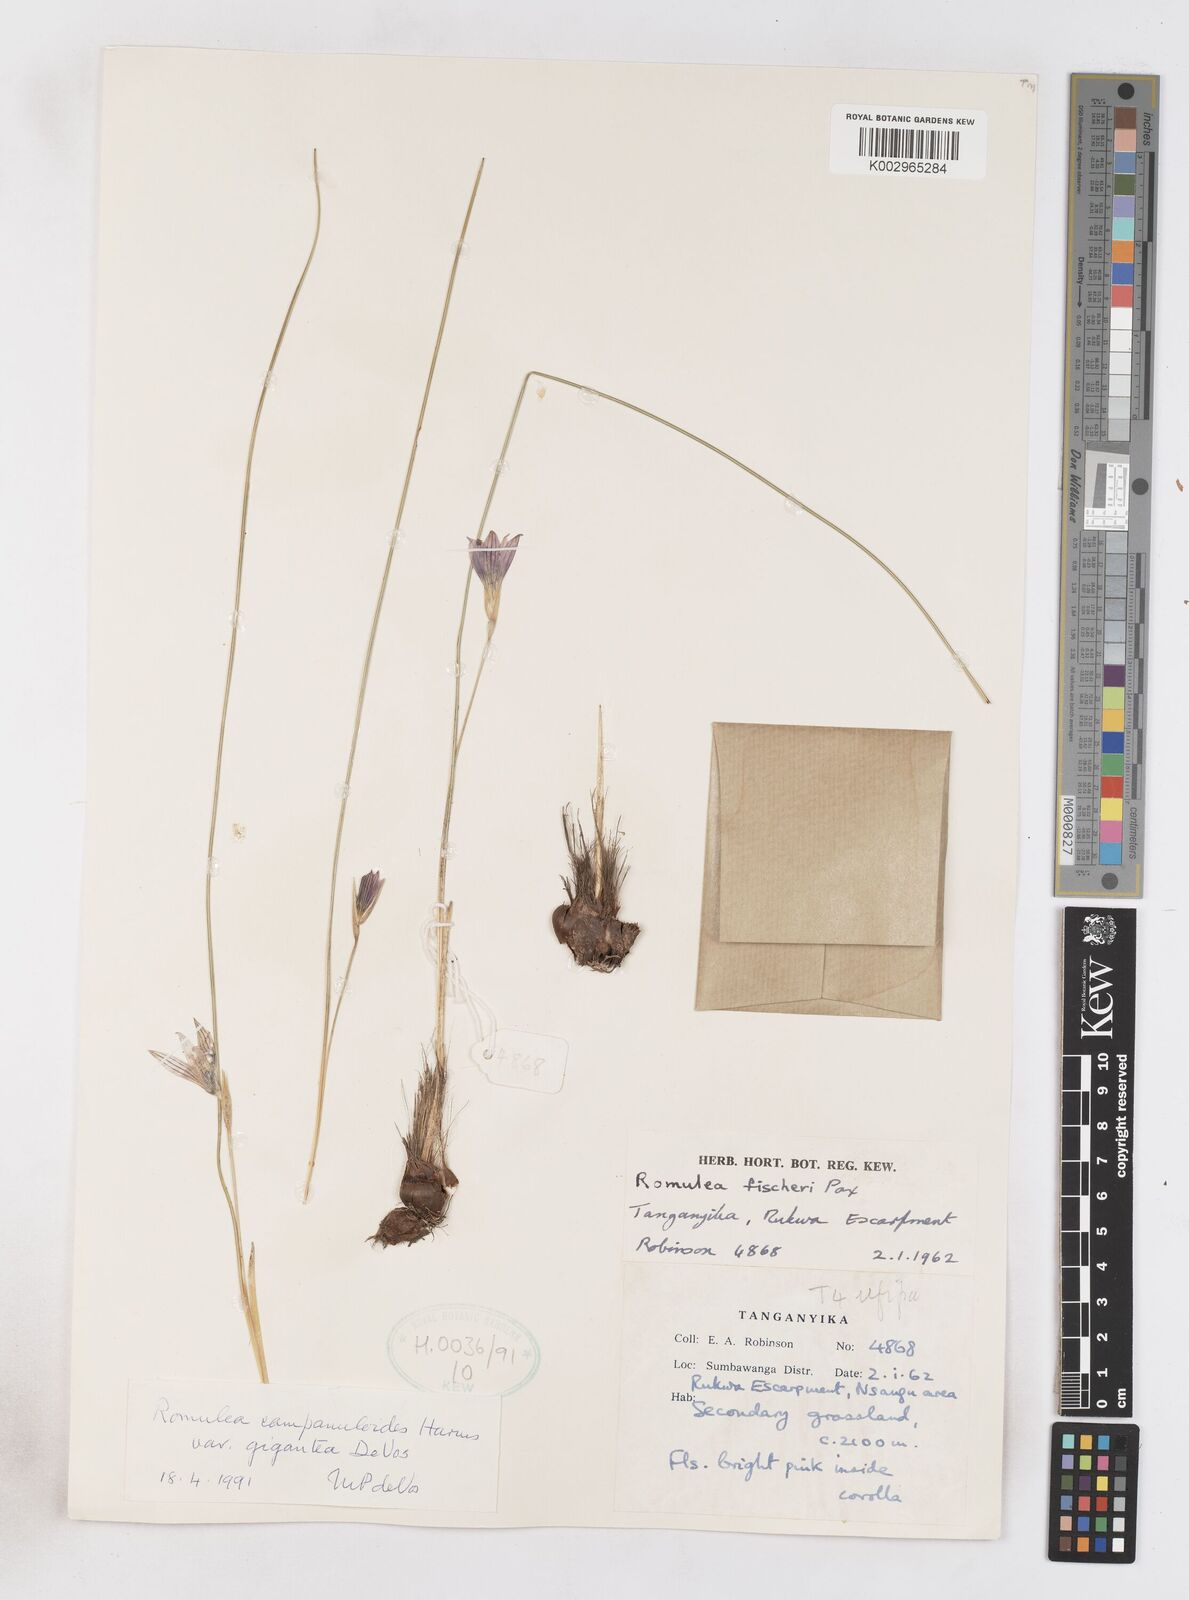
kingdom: Plantae
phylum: Tracheophyta
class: Liliopsida
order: Asparagales
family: Iridaceae
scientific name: Iridaceae
